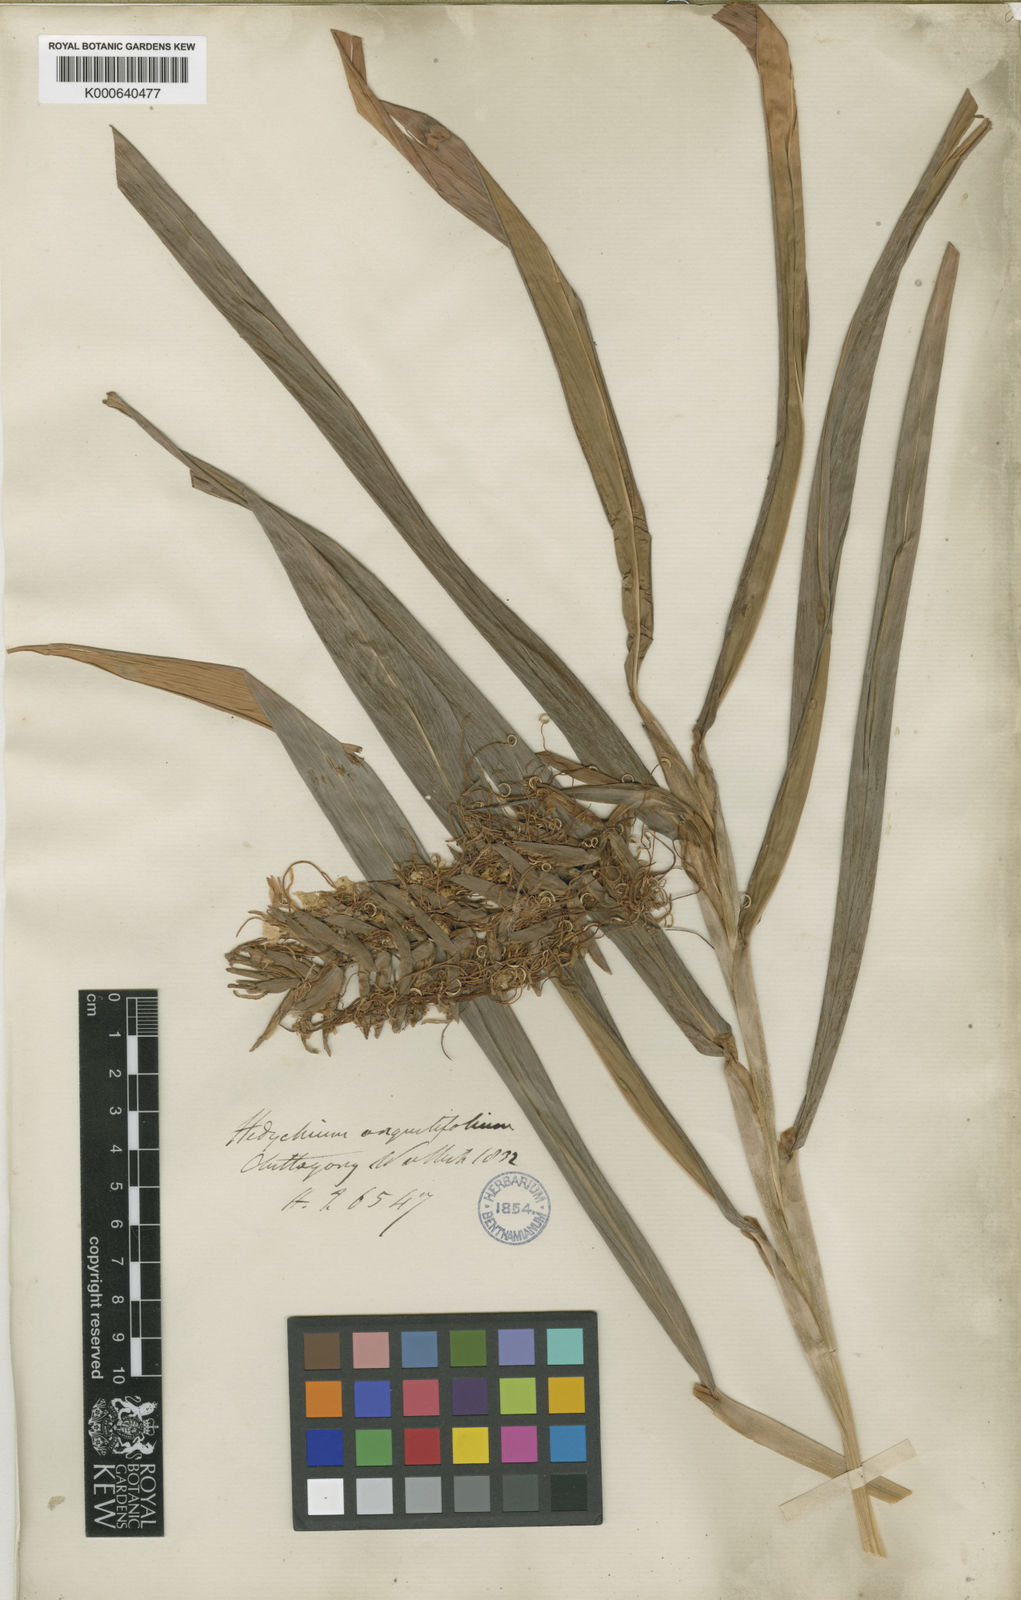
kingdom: Plantae
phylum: Tracheophyta
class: Liliopsida
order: Zingiberales
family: Zingiberaceae
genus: Hedychium
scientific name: Hedychium coccineum
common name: Red ginger-lily
